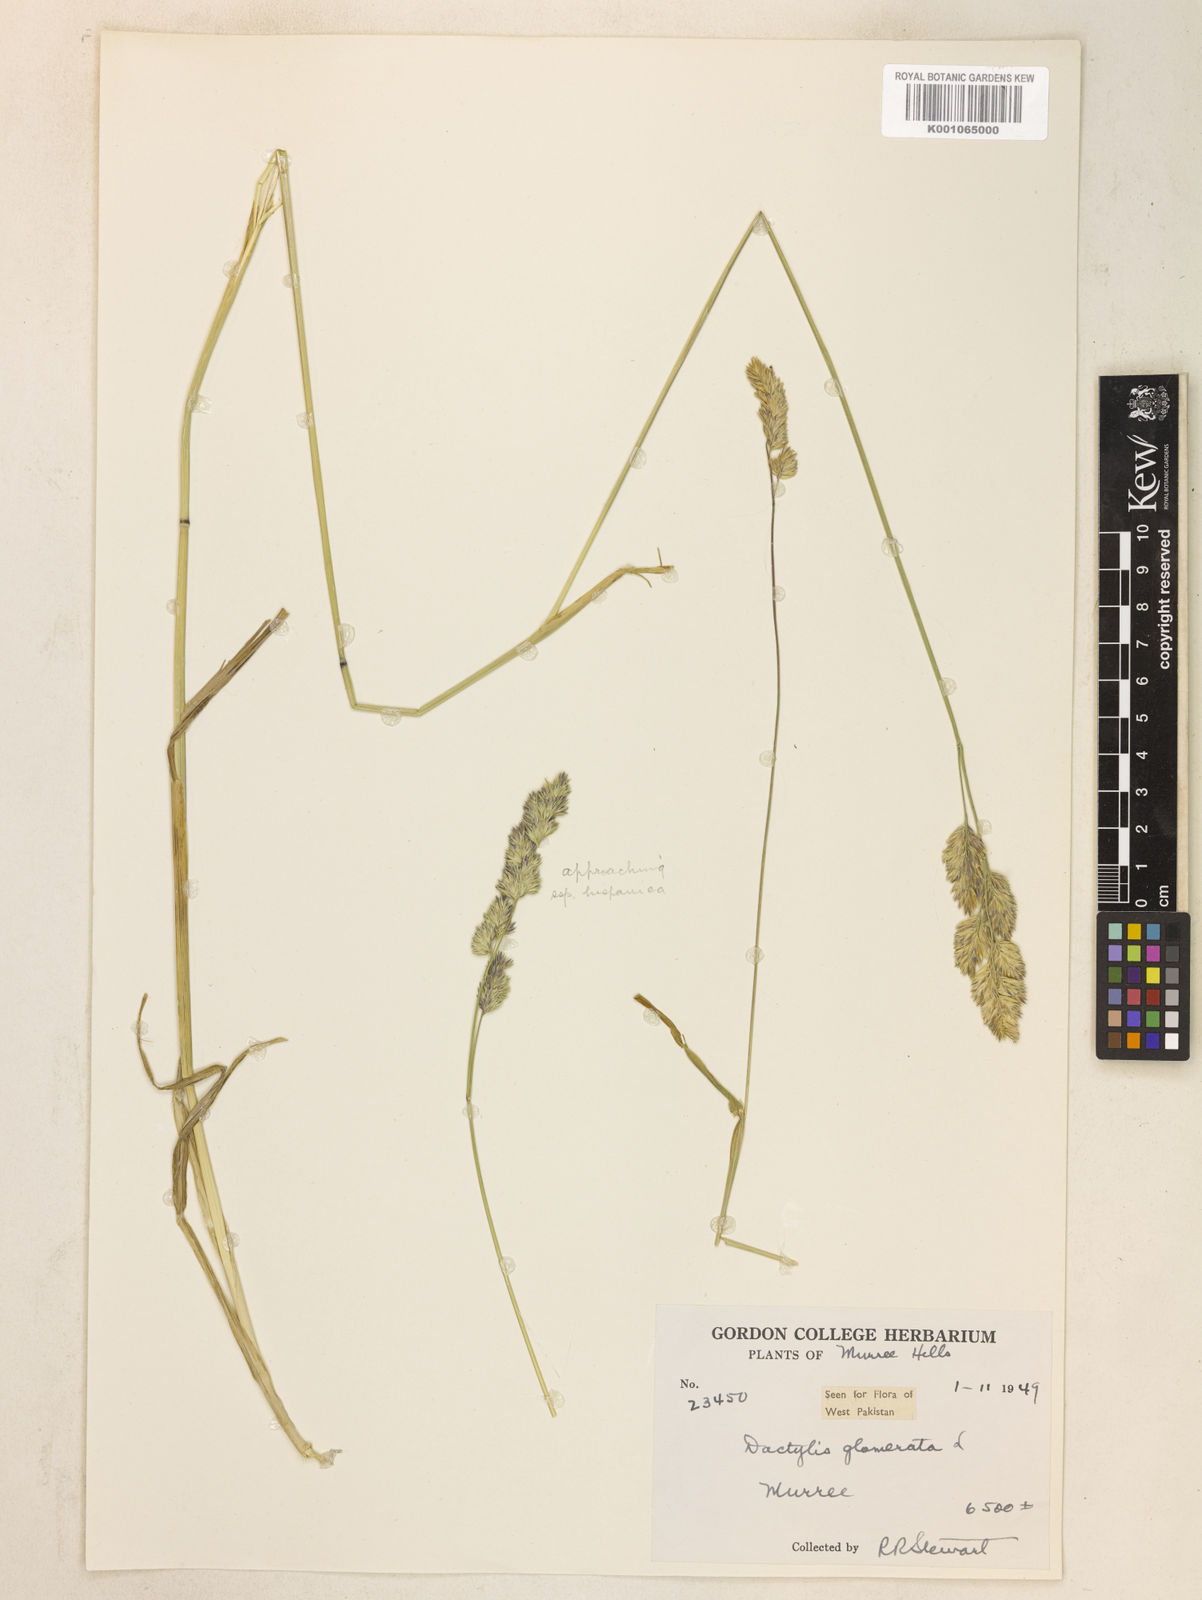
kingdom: Plantae
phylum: Tracheophyta
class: Liliopsida
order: Poales
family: Poaceae
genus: Dactylis
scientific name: Dactylis glomerata
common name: Orchardgrass
